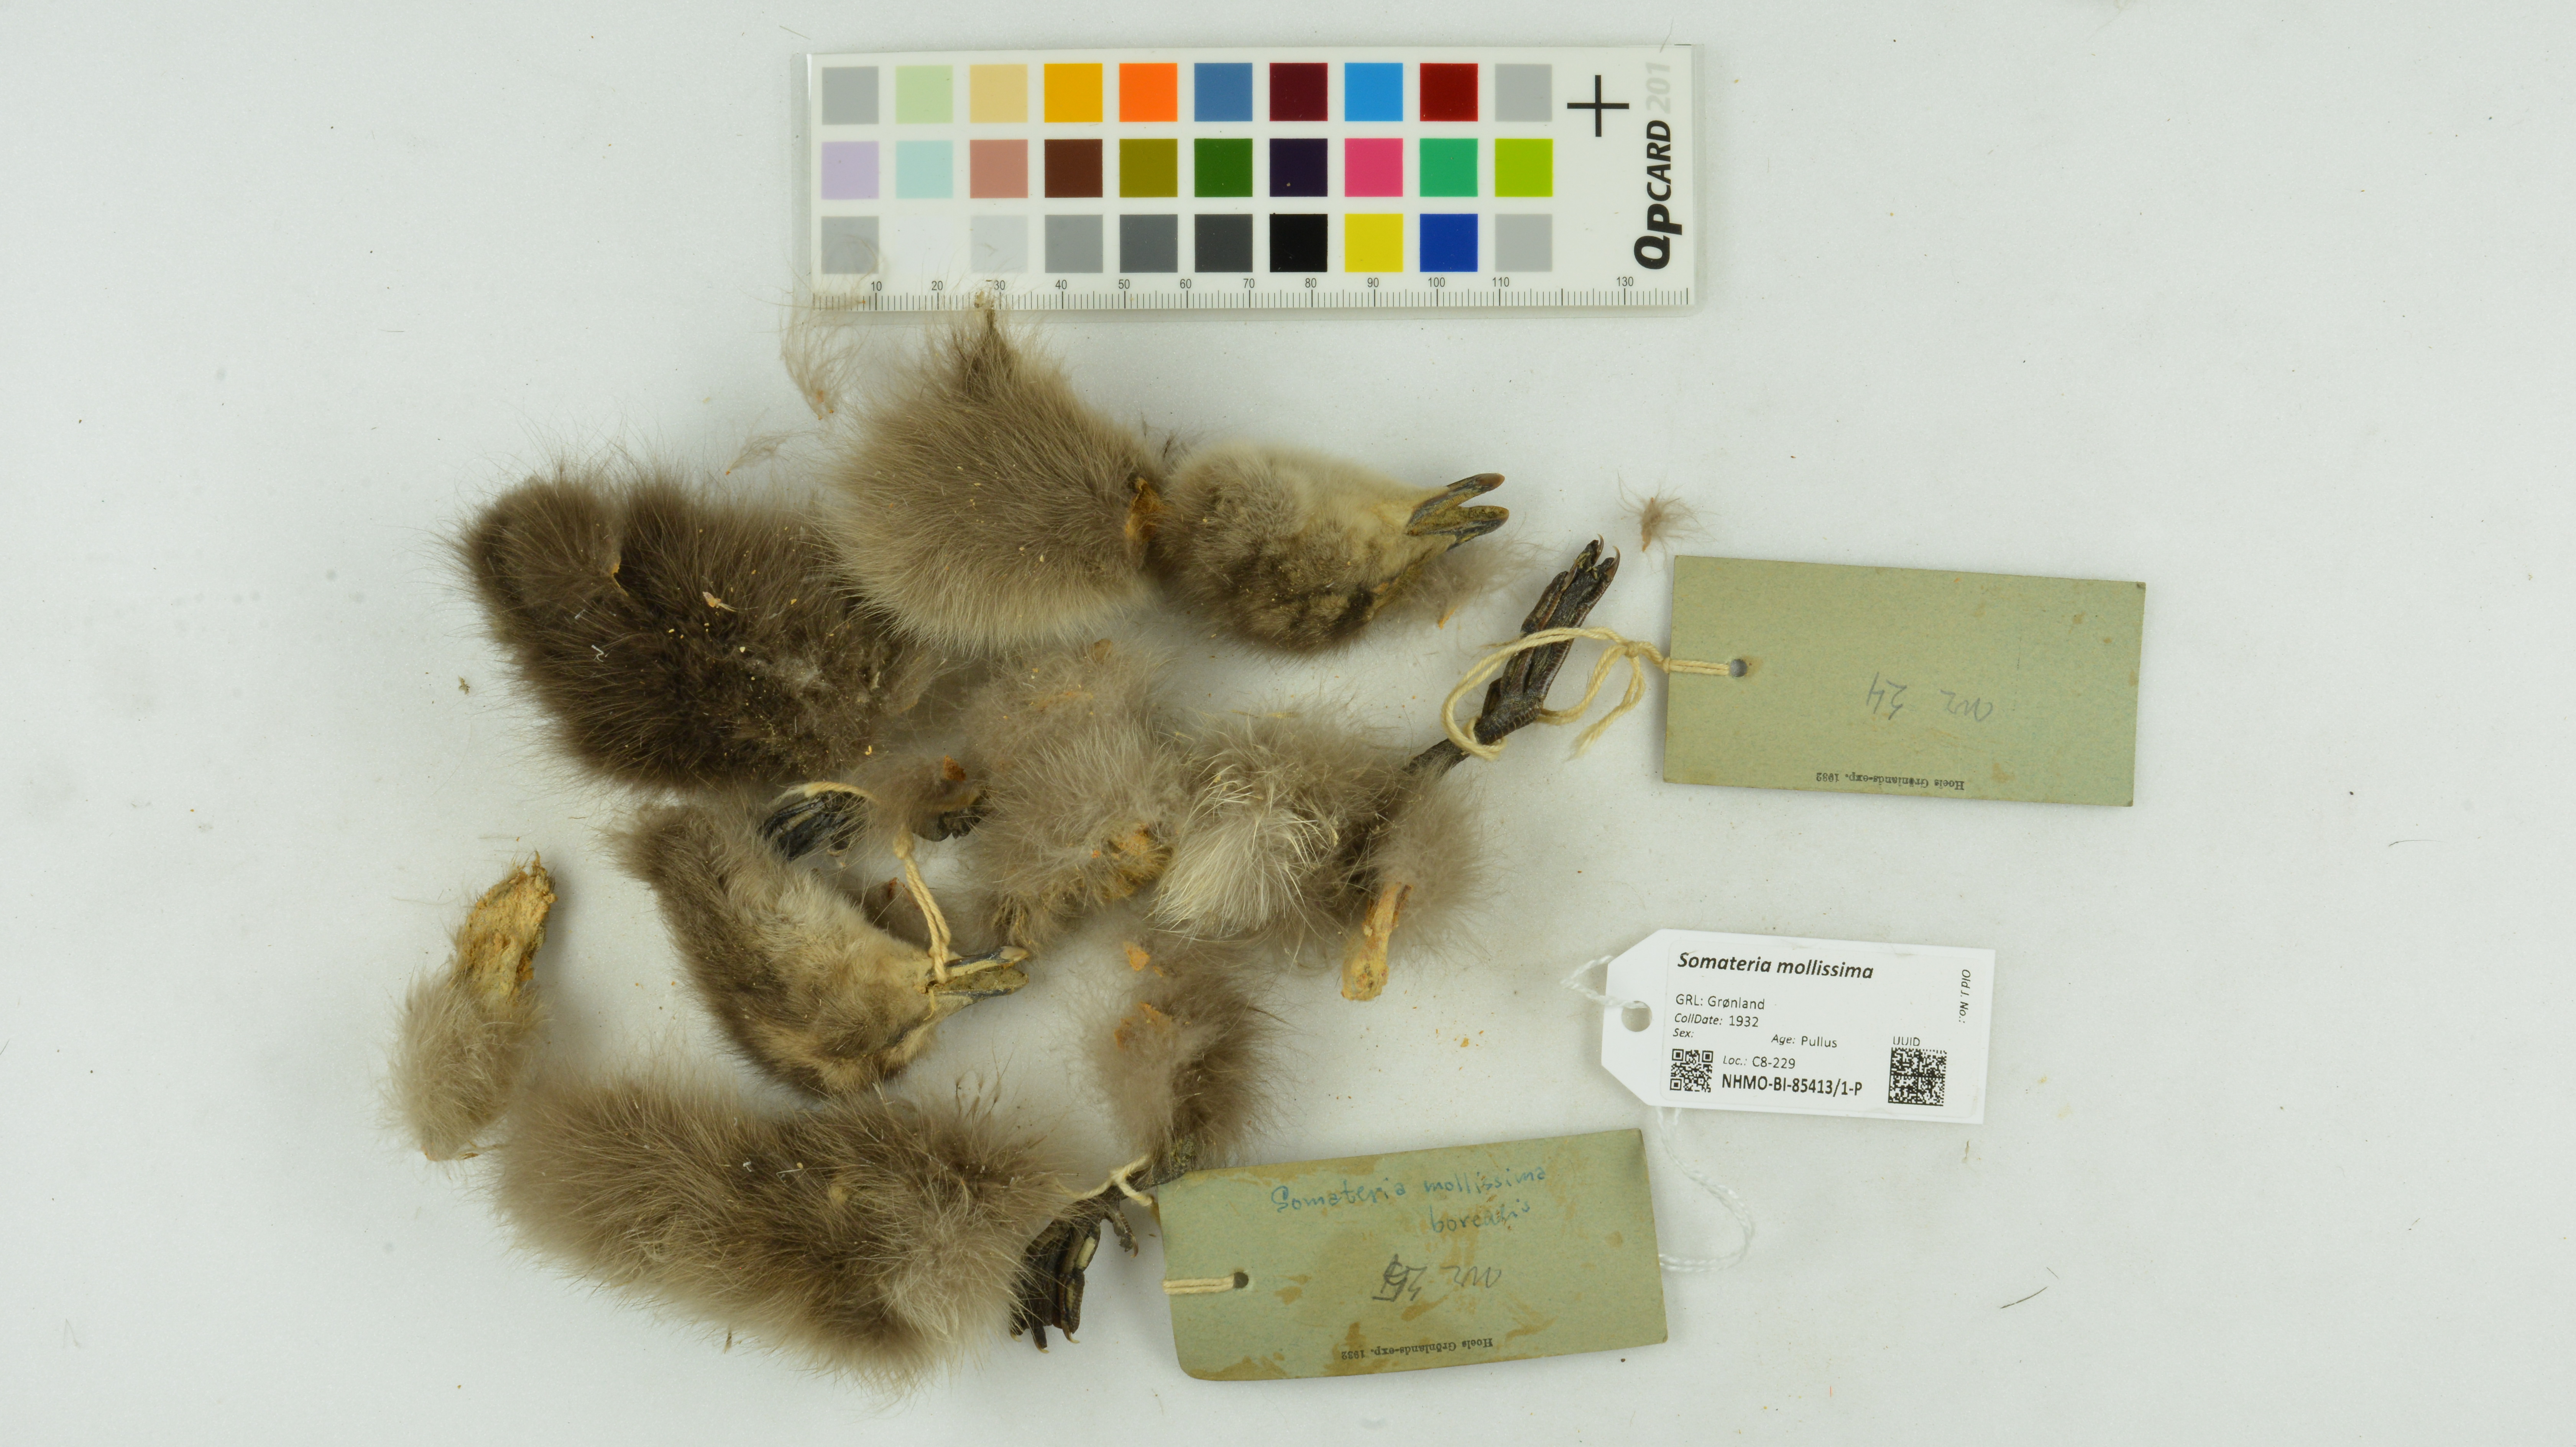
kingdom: Animalia
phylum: Chordata
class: Aves
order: Anseriformes
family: Anatidae
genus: Somateria
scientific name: Somateria mollissima
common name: Common eider
